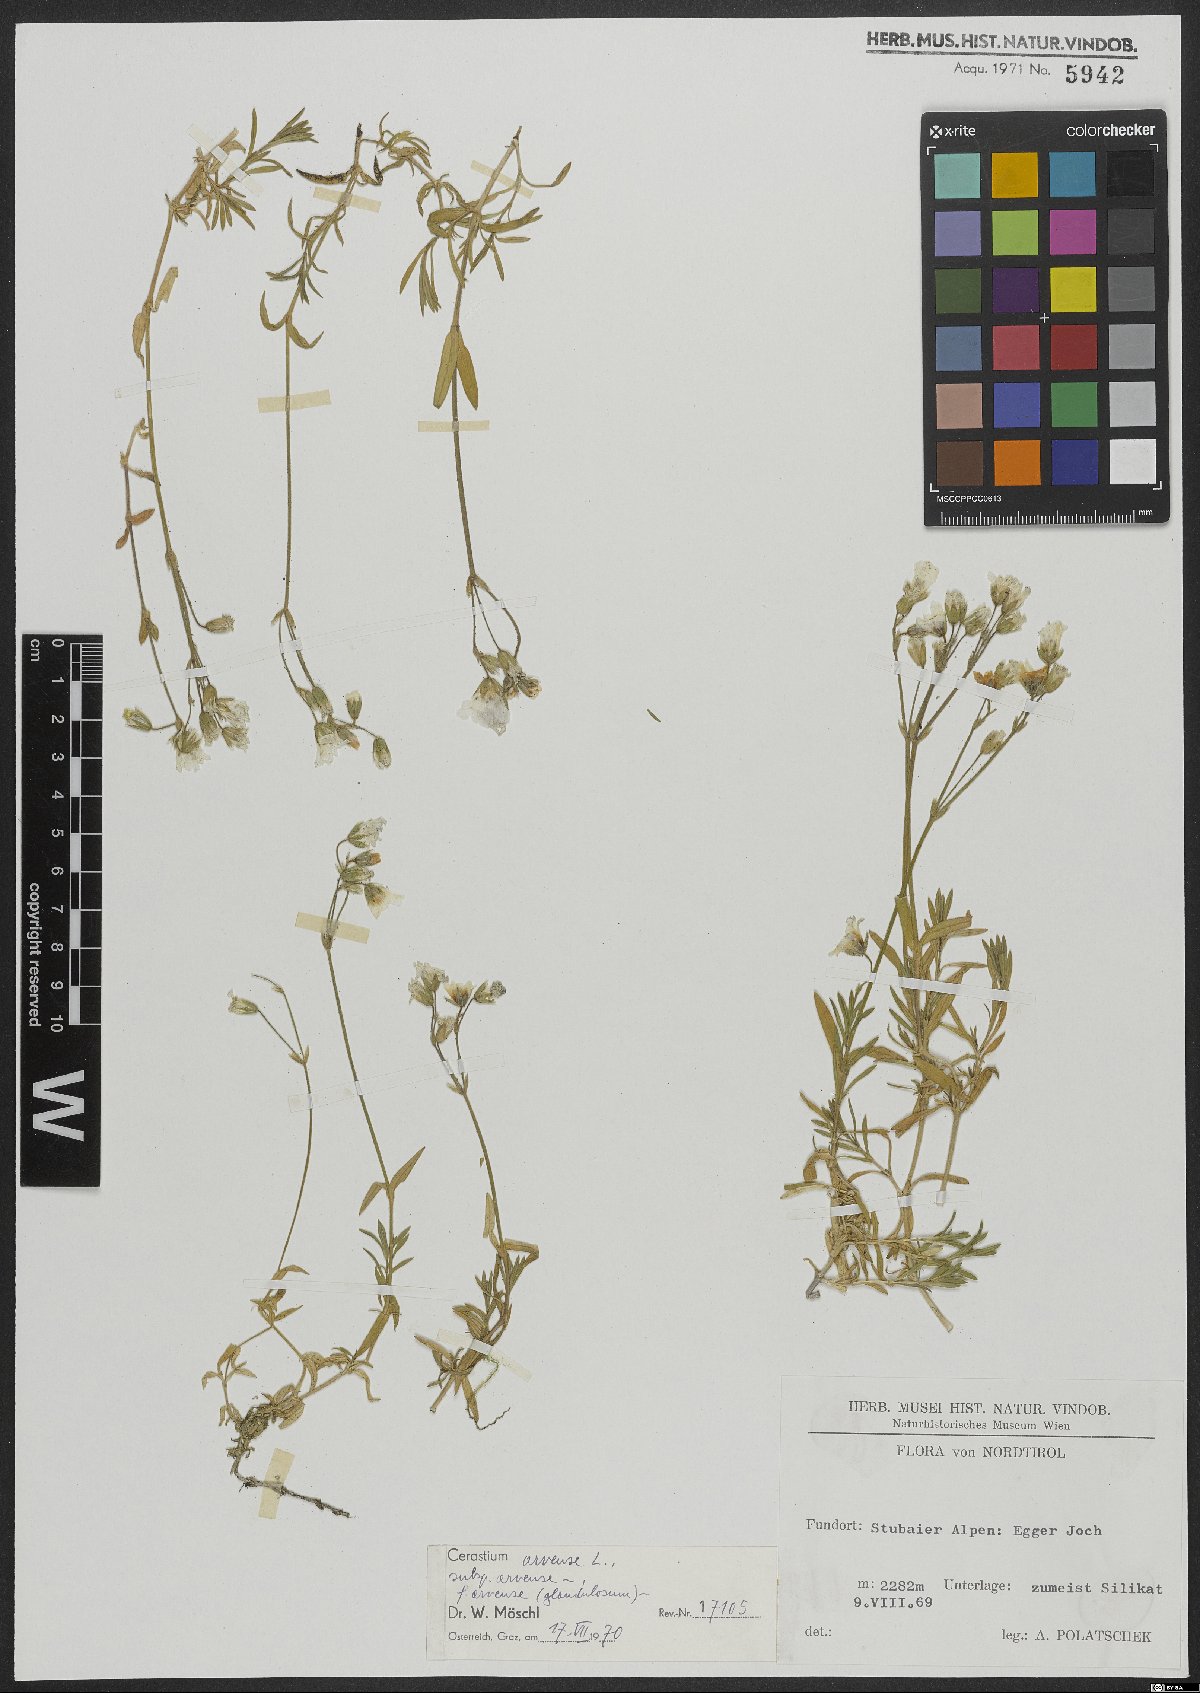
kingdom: Plantae
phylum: Tracheophyta
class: Magnoliopsida
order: Caryophyllales
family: Caryophyllaceae
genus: Cerastium
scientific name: Cerastium arvense
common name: Field mouse-ear
